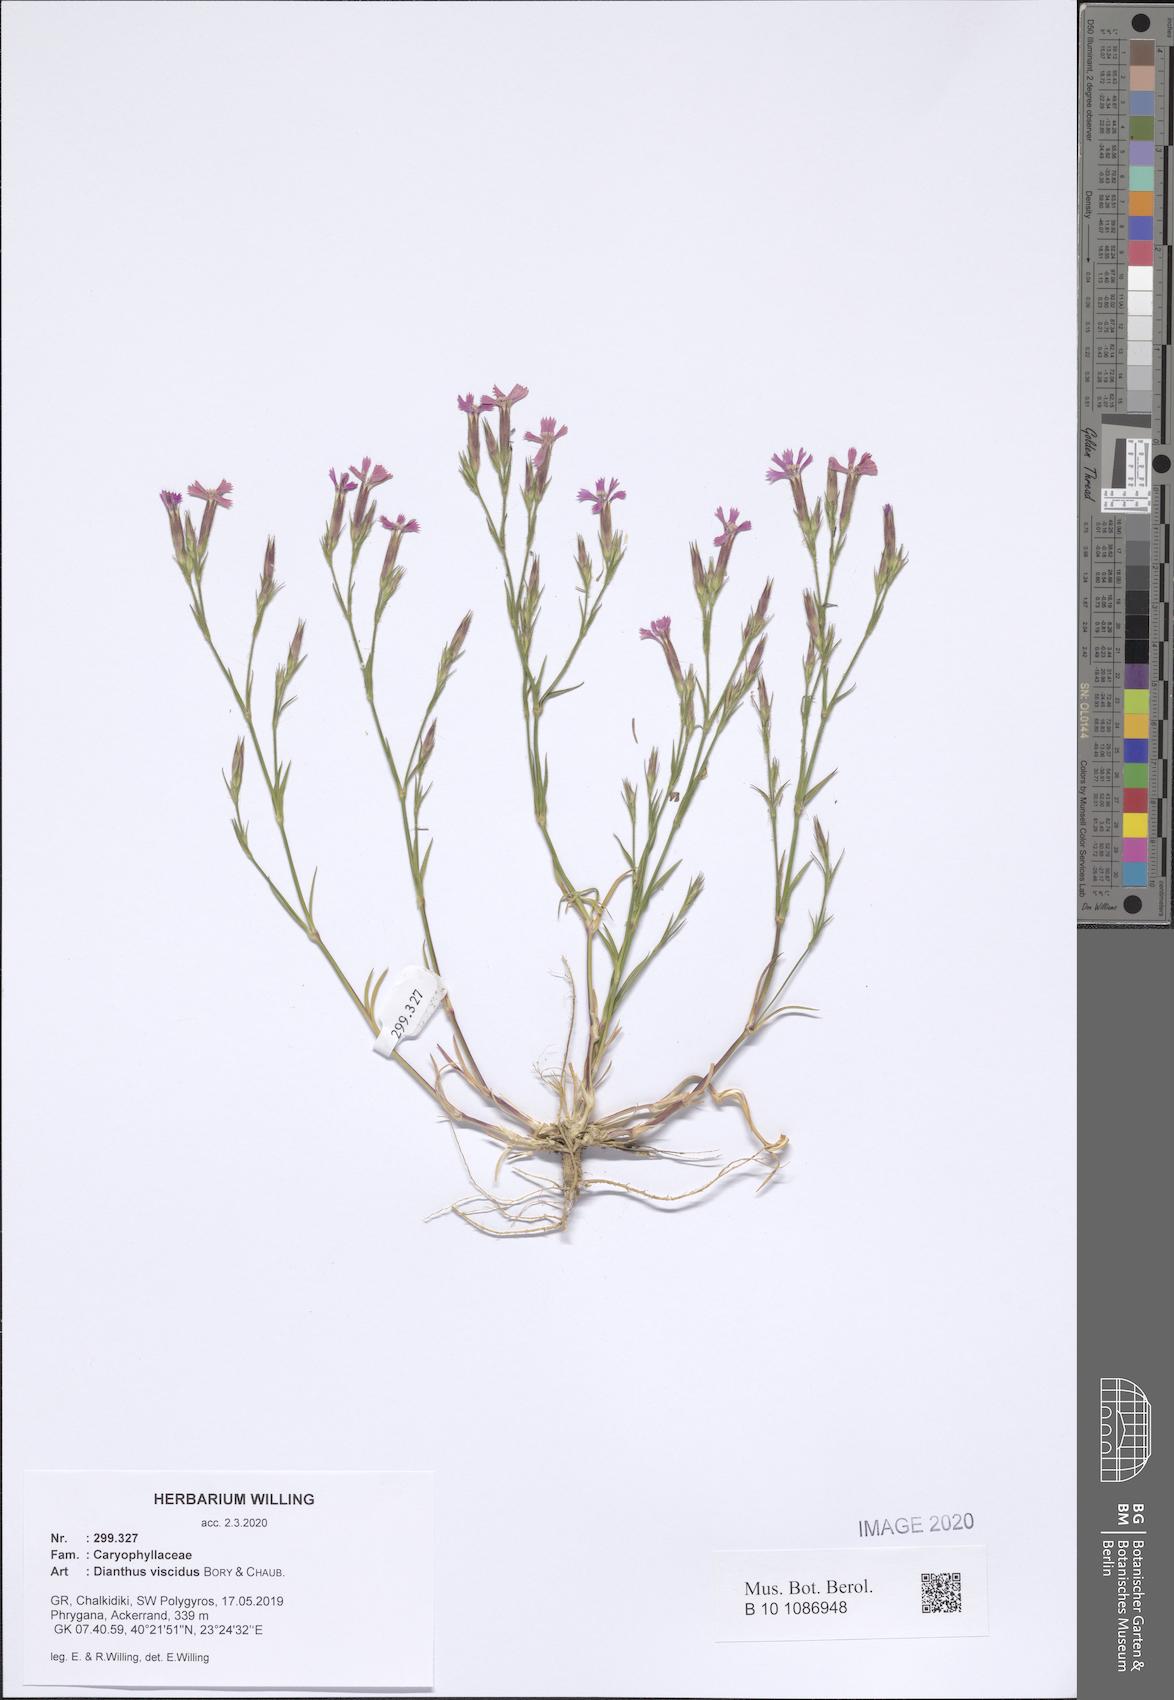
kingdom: Plantae
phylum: Tracheophyta
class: Magnoliopsida
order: Caryophyllales
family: Caryophyllaceae
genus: Dianthus
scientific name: Dianthus viscidus
